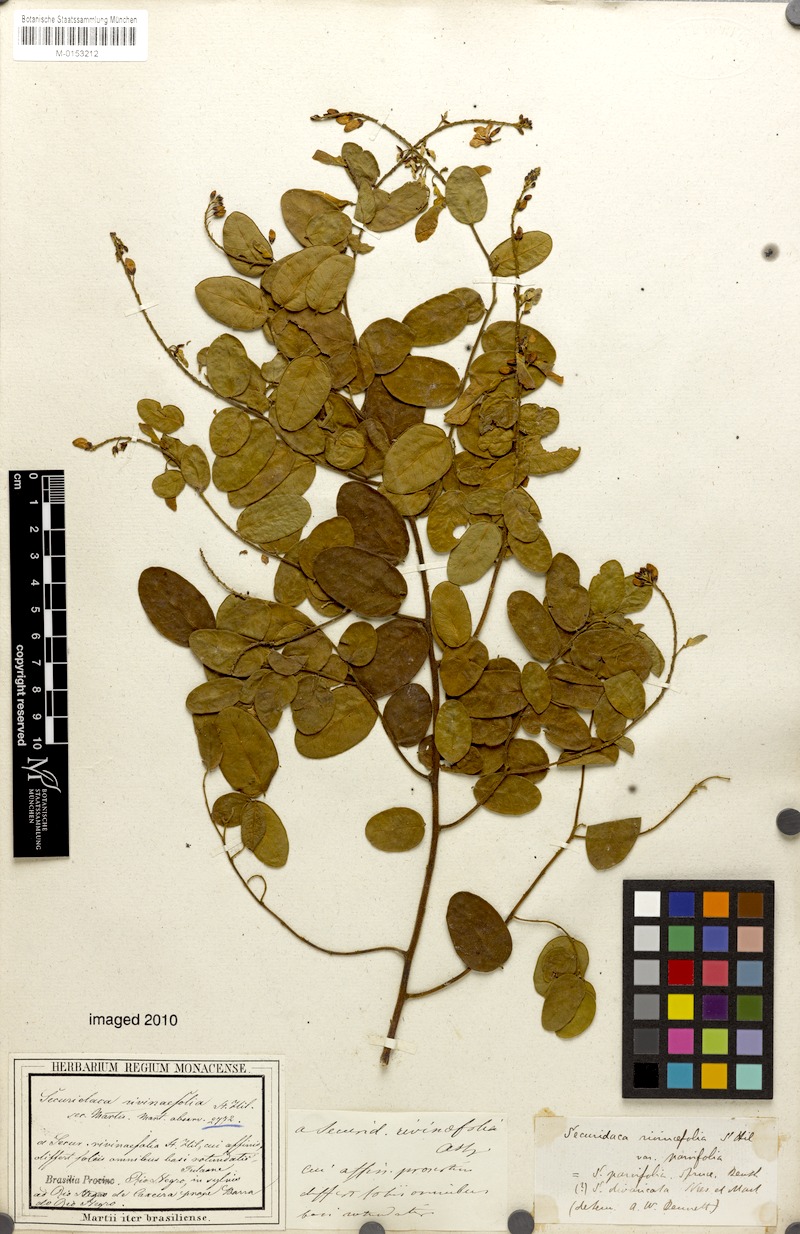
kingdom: Plantae
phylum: Tracheophyta
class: Magnoliopsida
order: Fabales
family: Polygalaceae
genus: Securidaca
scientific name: Securidaca divaricata
